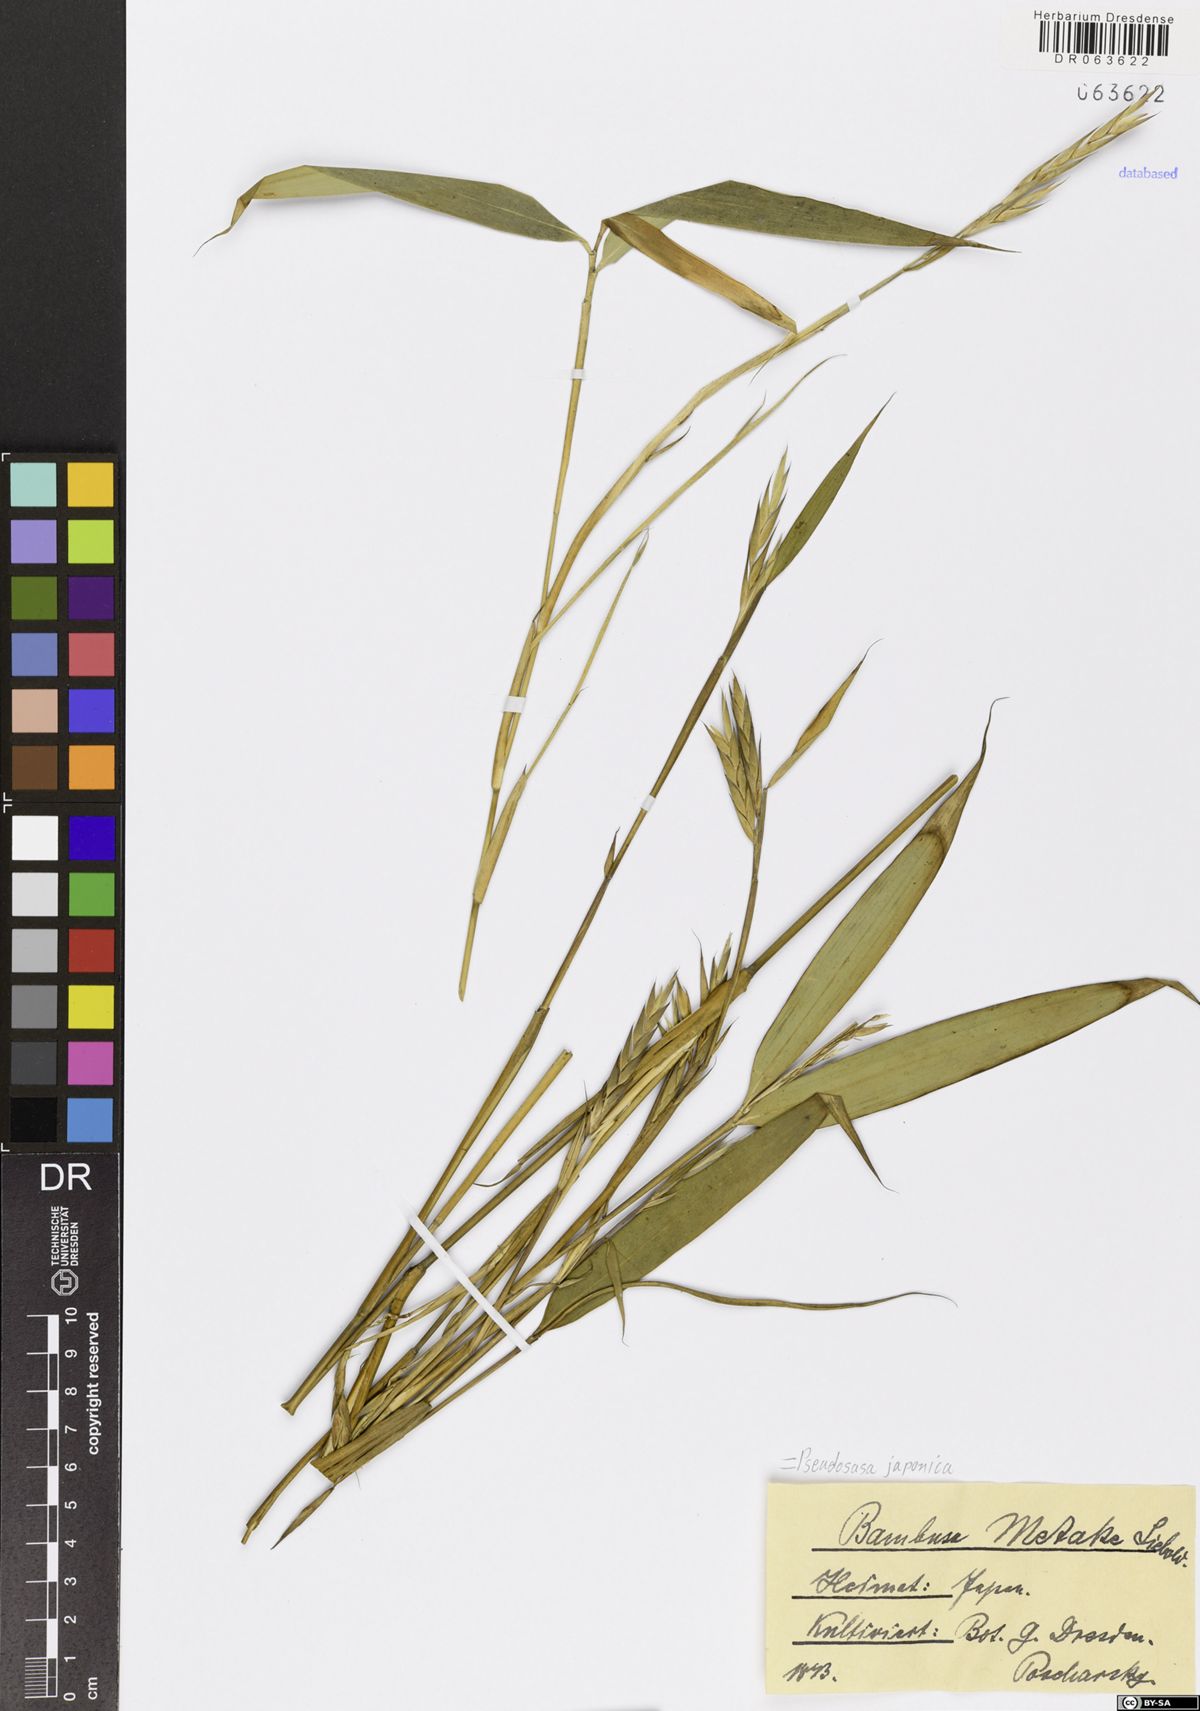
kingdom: Plantae
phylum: Tracheophyta
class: Liliopsida
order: Poales
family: Poaceae
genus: Pseudosasa
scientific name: Pseudosasa japonica
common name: Arrow bamboo
